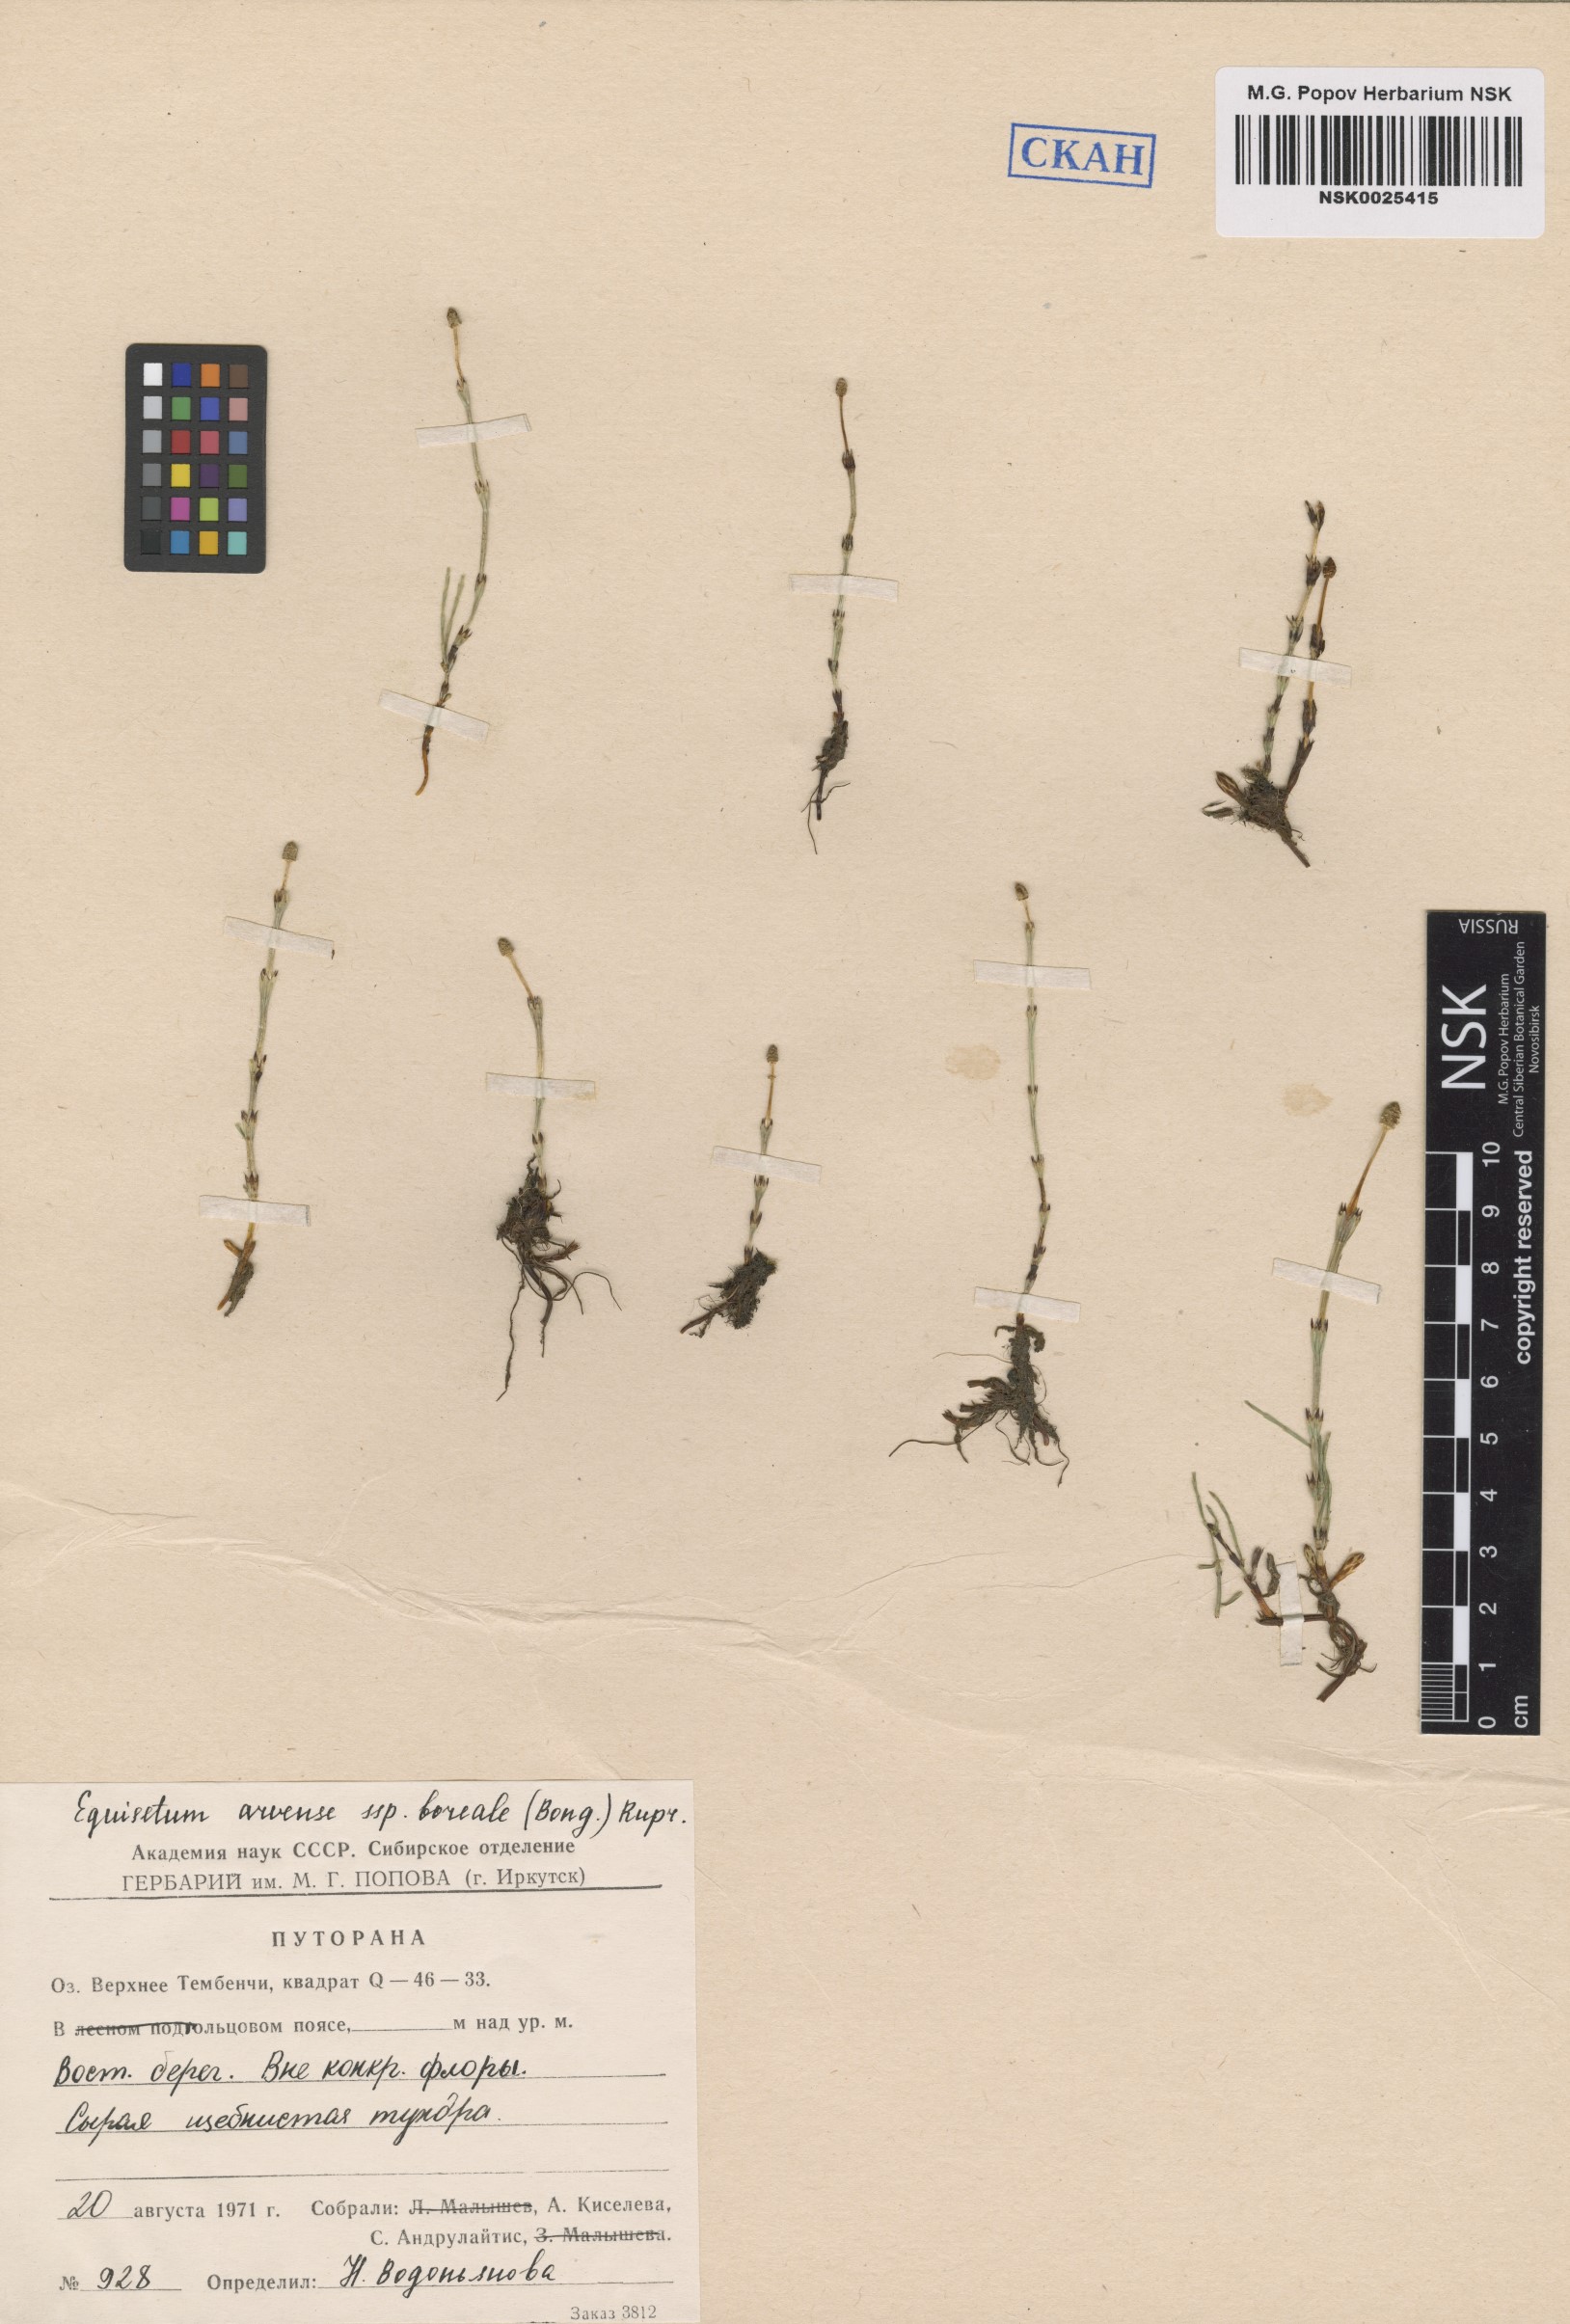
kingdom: Plantae
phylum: Tracheophyta
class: Polypodiopsida
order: Equisetales
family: Equisetaceae
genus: Equisetum
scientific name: Equisetum arvense
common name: Field horsetail
